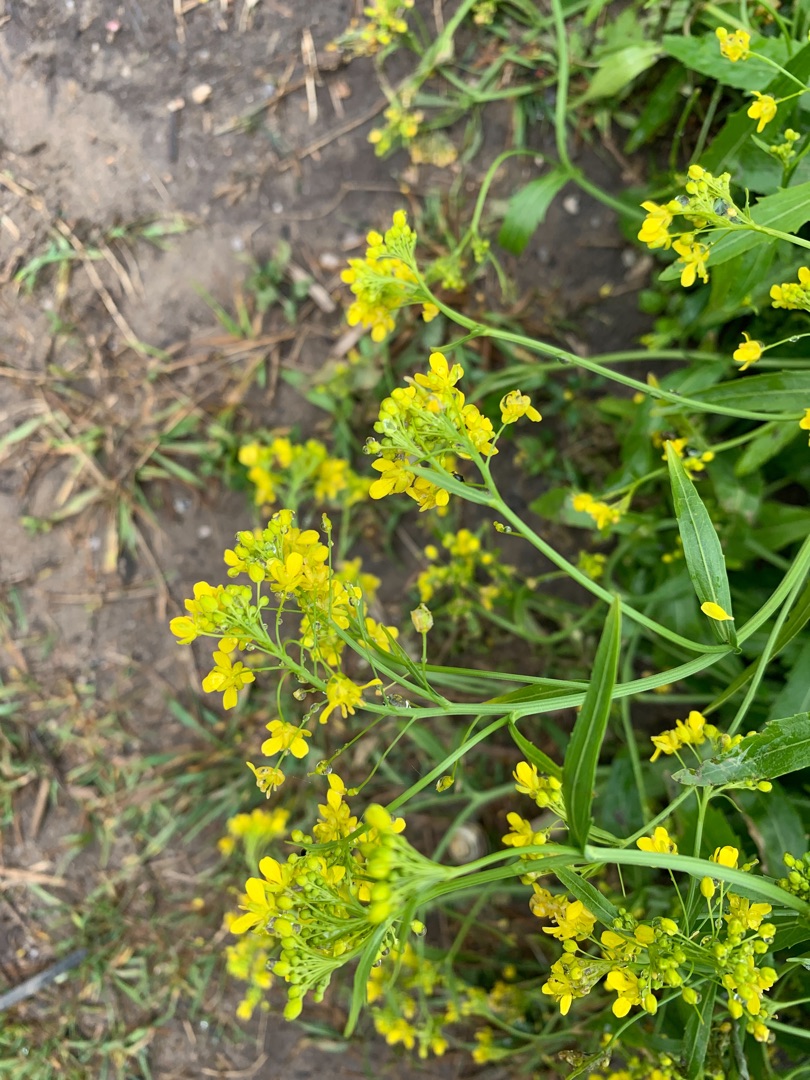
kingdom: Plantae
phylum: Tracheophyta
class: Magnoliopsida
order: Brassicales
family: Brassicaceae
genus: Rorippa
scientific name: Rorippa austriaca
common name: Østrigsk guldkarse
